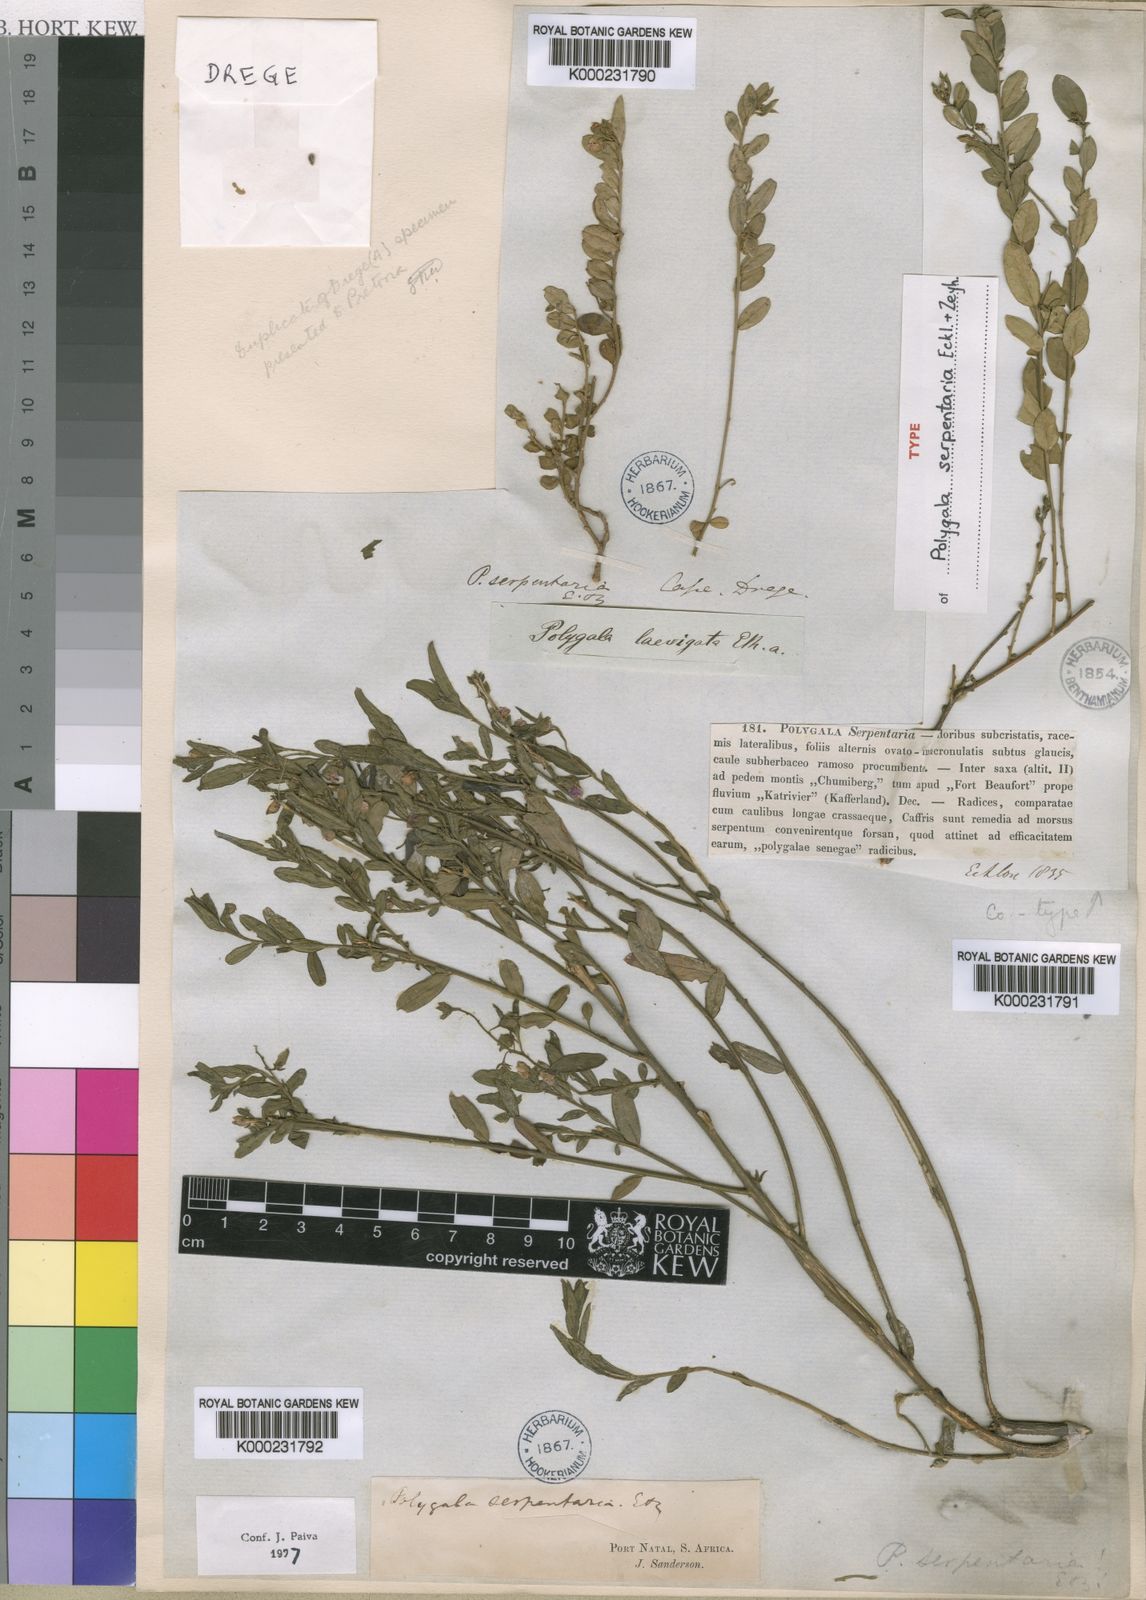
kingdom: Plantae
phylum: Tracheophyta
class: Magnoliopsida
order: Fabales
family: Polygalaceae
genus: Polygala
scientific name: Polygala serpentaria
